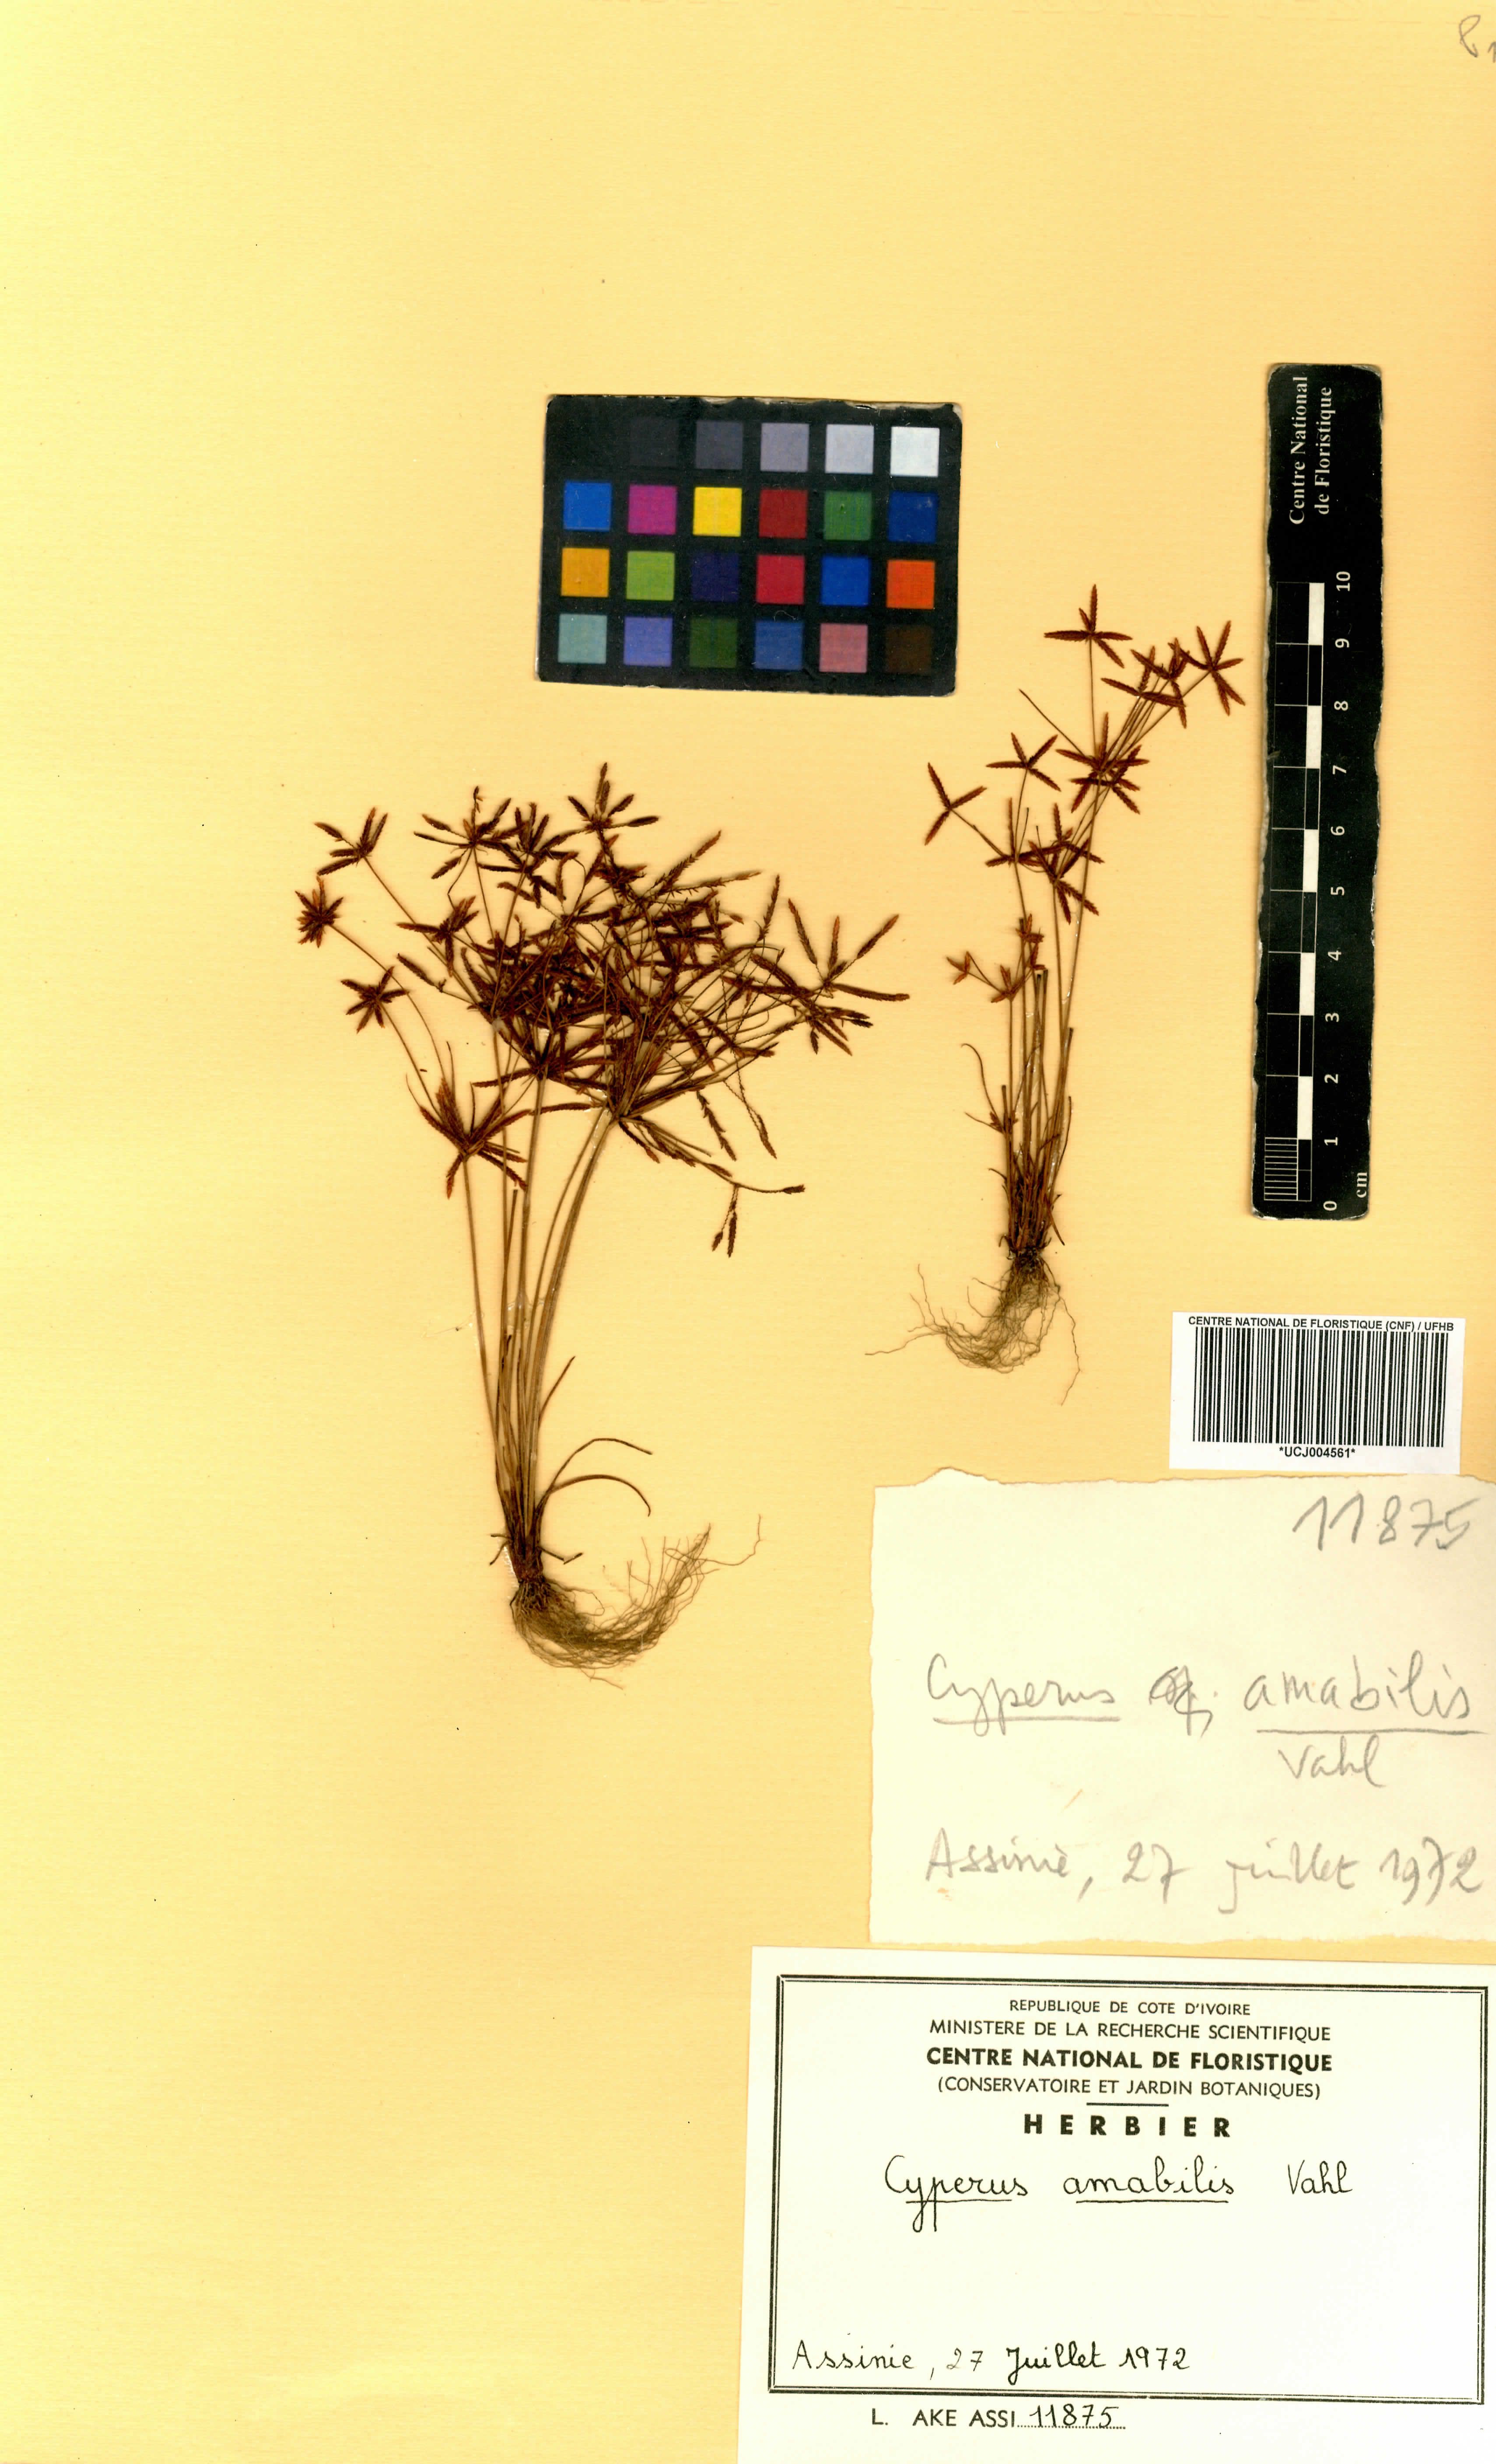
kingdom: Plantae
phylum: Tracheophyta
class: Liliopsida
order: Poales
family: Cyperaceae
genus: Cyperus
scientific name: Cyperus amabilis
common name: Foothill flat sedge
